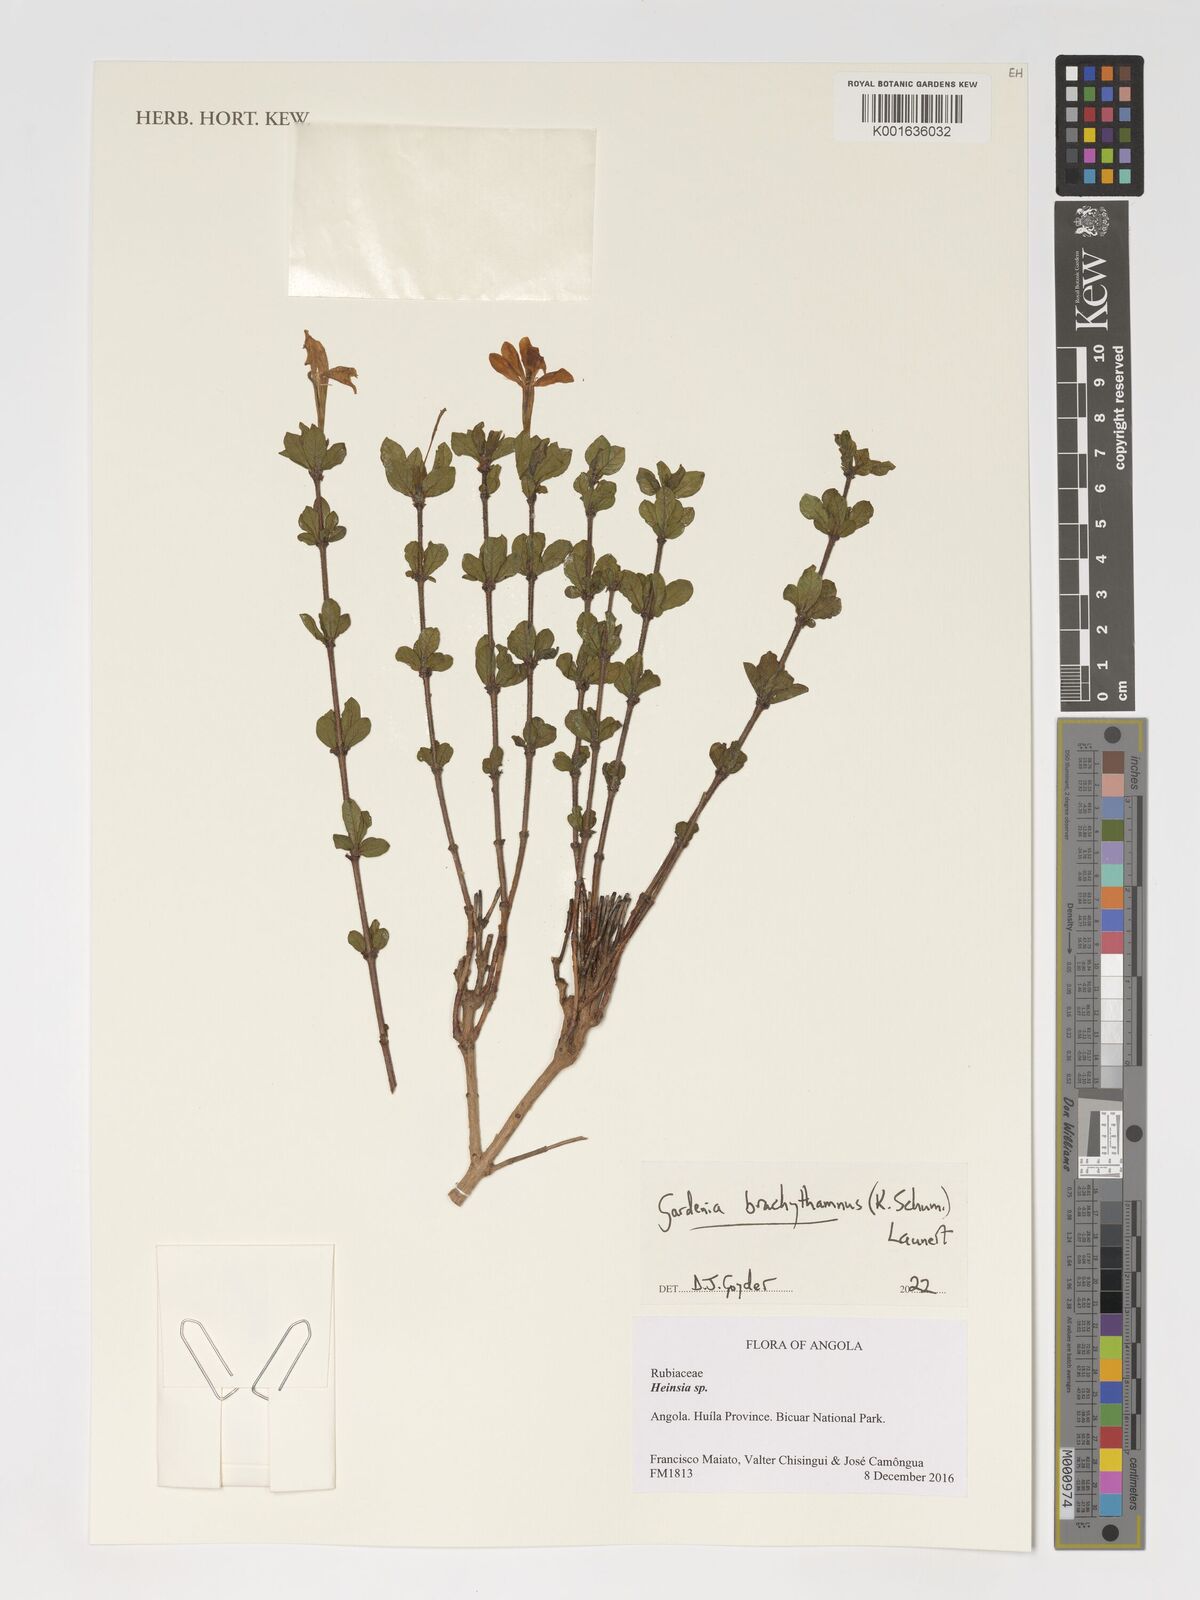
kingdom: Plantae
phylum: Tracheophyta
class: Magnoliopsida
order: Gentianales
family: Rubiaceae
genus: Gardenia
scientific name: Gardenia brachythamnus
